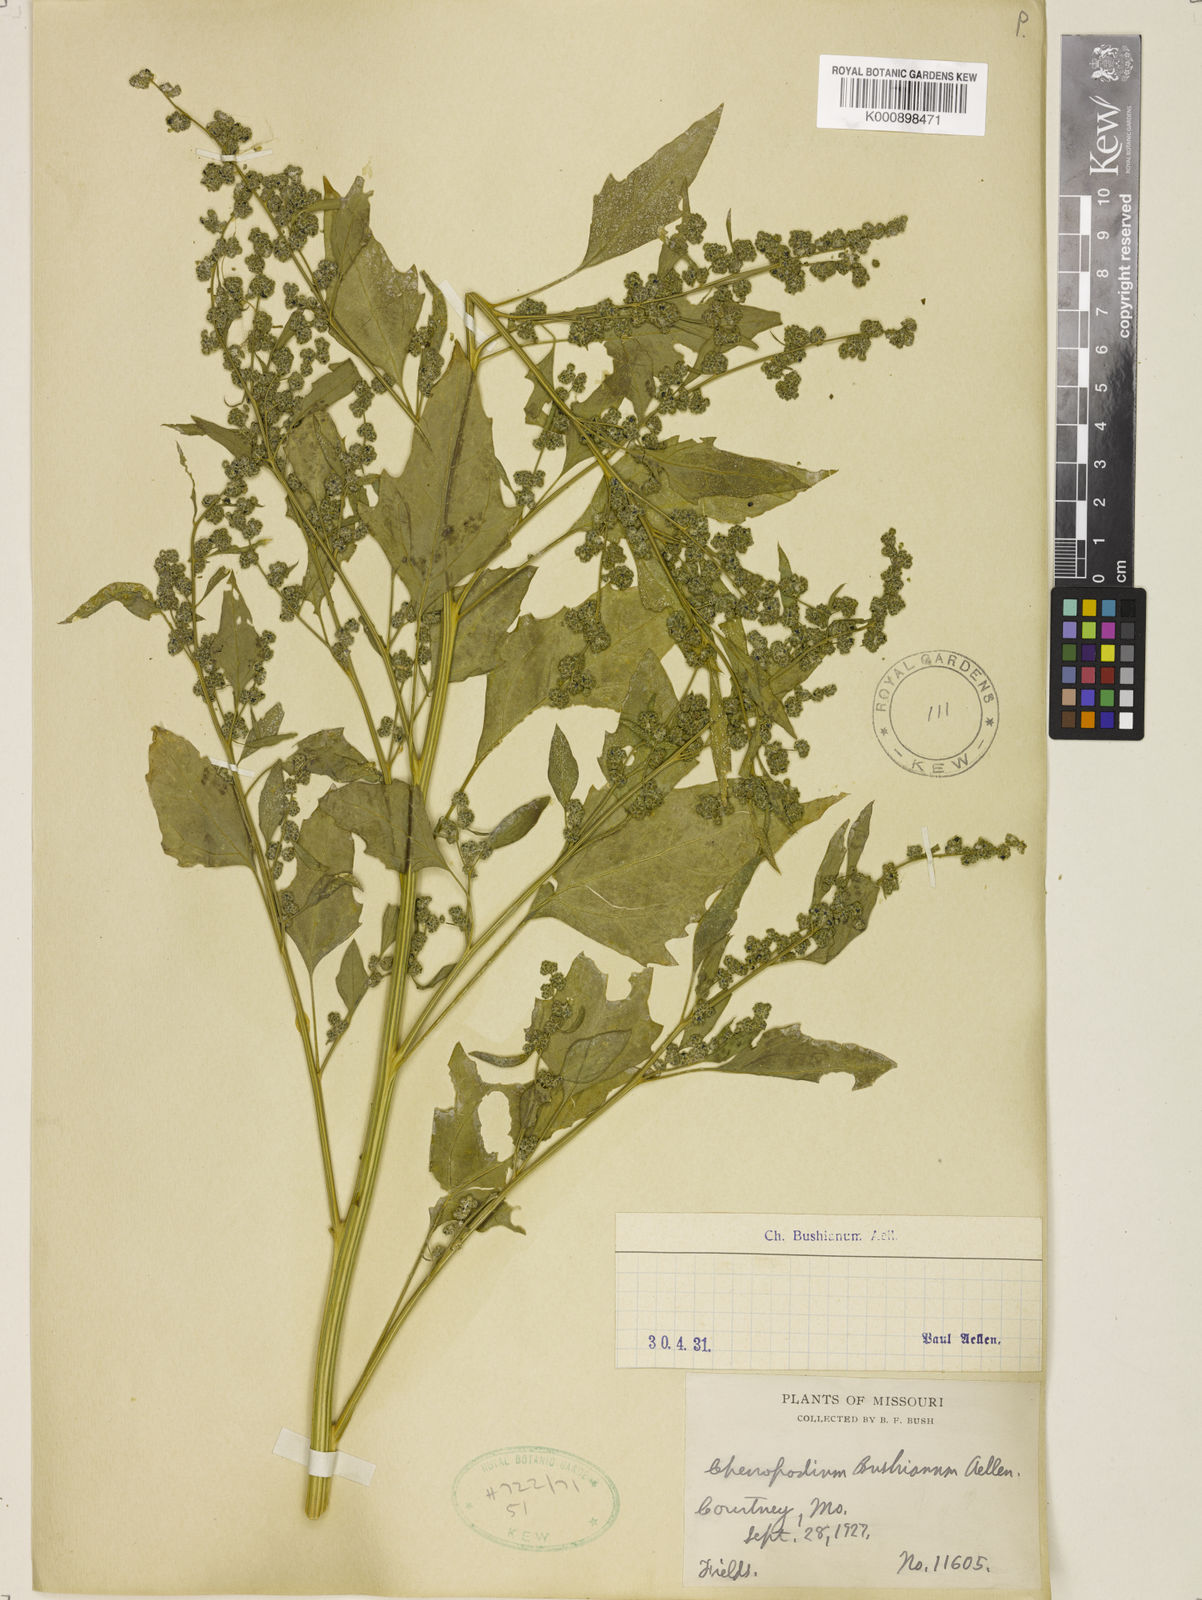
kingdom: Plantae
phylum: Tracheophyta
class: Magnoliopsida
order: Caryophyllales
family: Amaranthaceae
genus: Chenopodium
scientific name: Chenopodium berlandieri
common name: Pit-seed goosefoot
